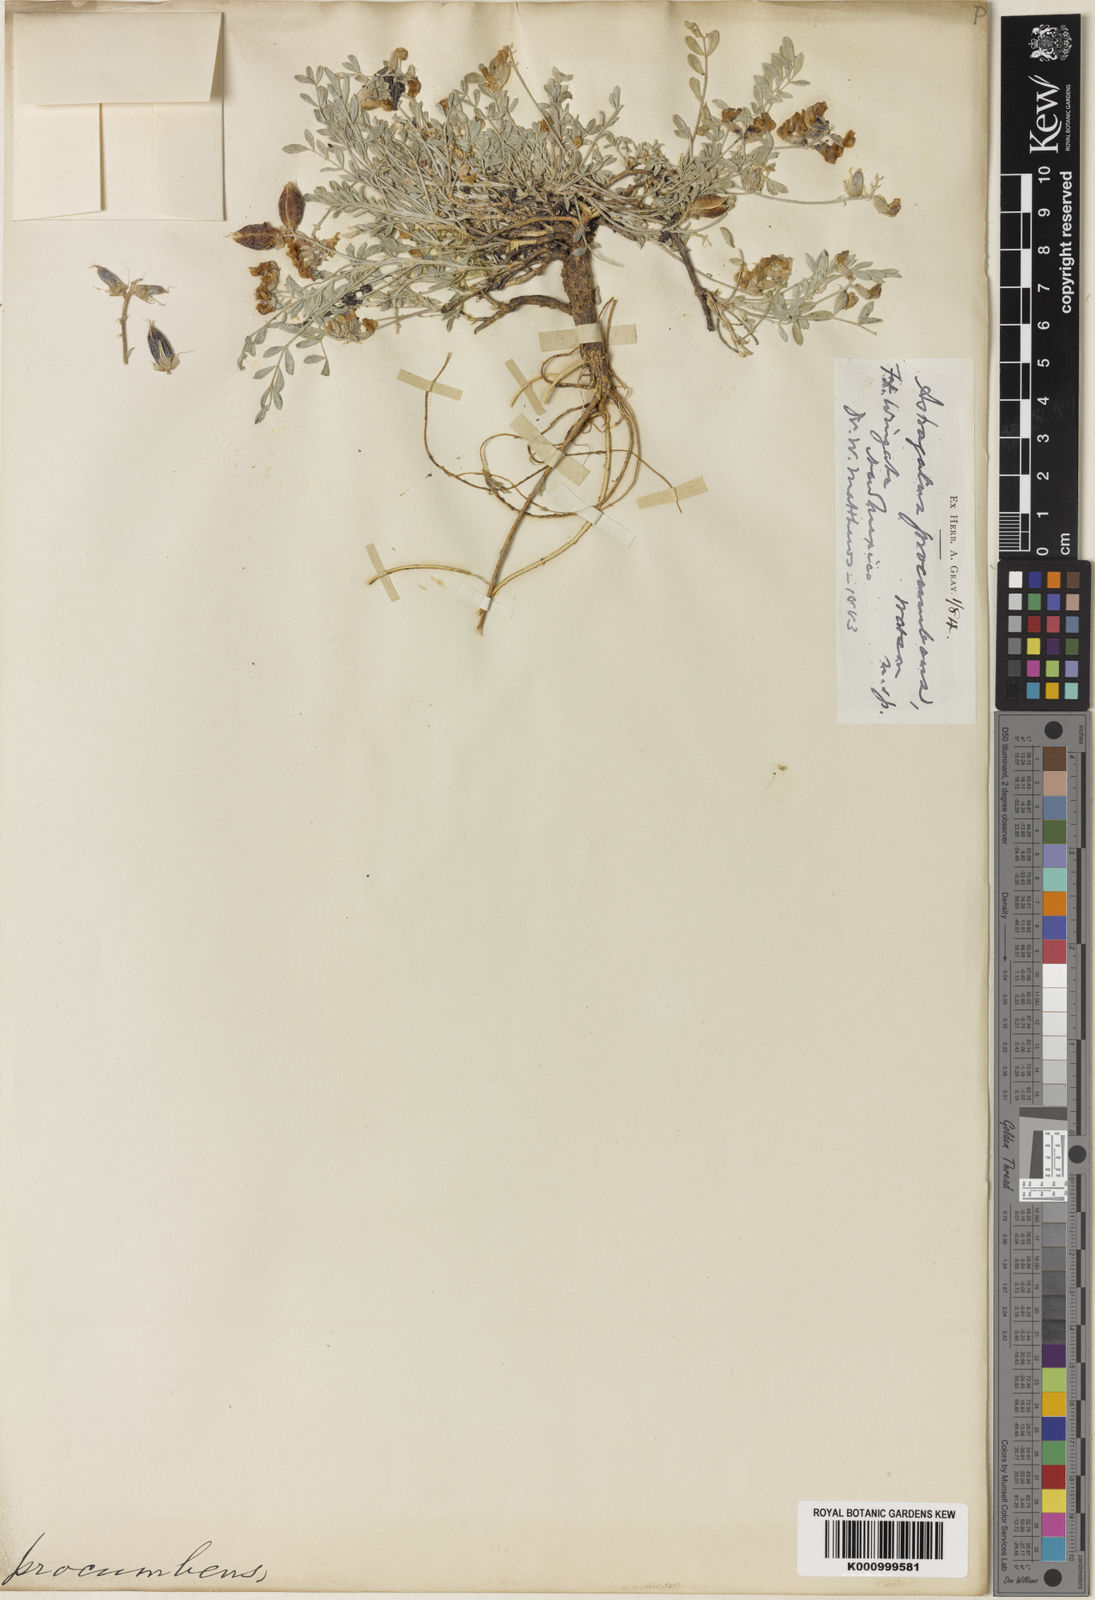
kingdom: Plantae
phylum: Tracheophyta
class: Magnoliopsida
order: Fabales
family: Fabaceae
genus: Astragalus
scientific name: Astragalus missouriensis
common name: Missouri milk-vetch
